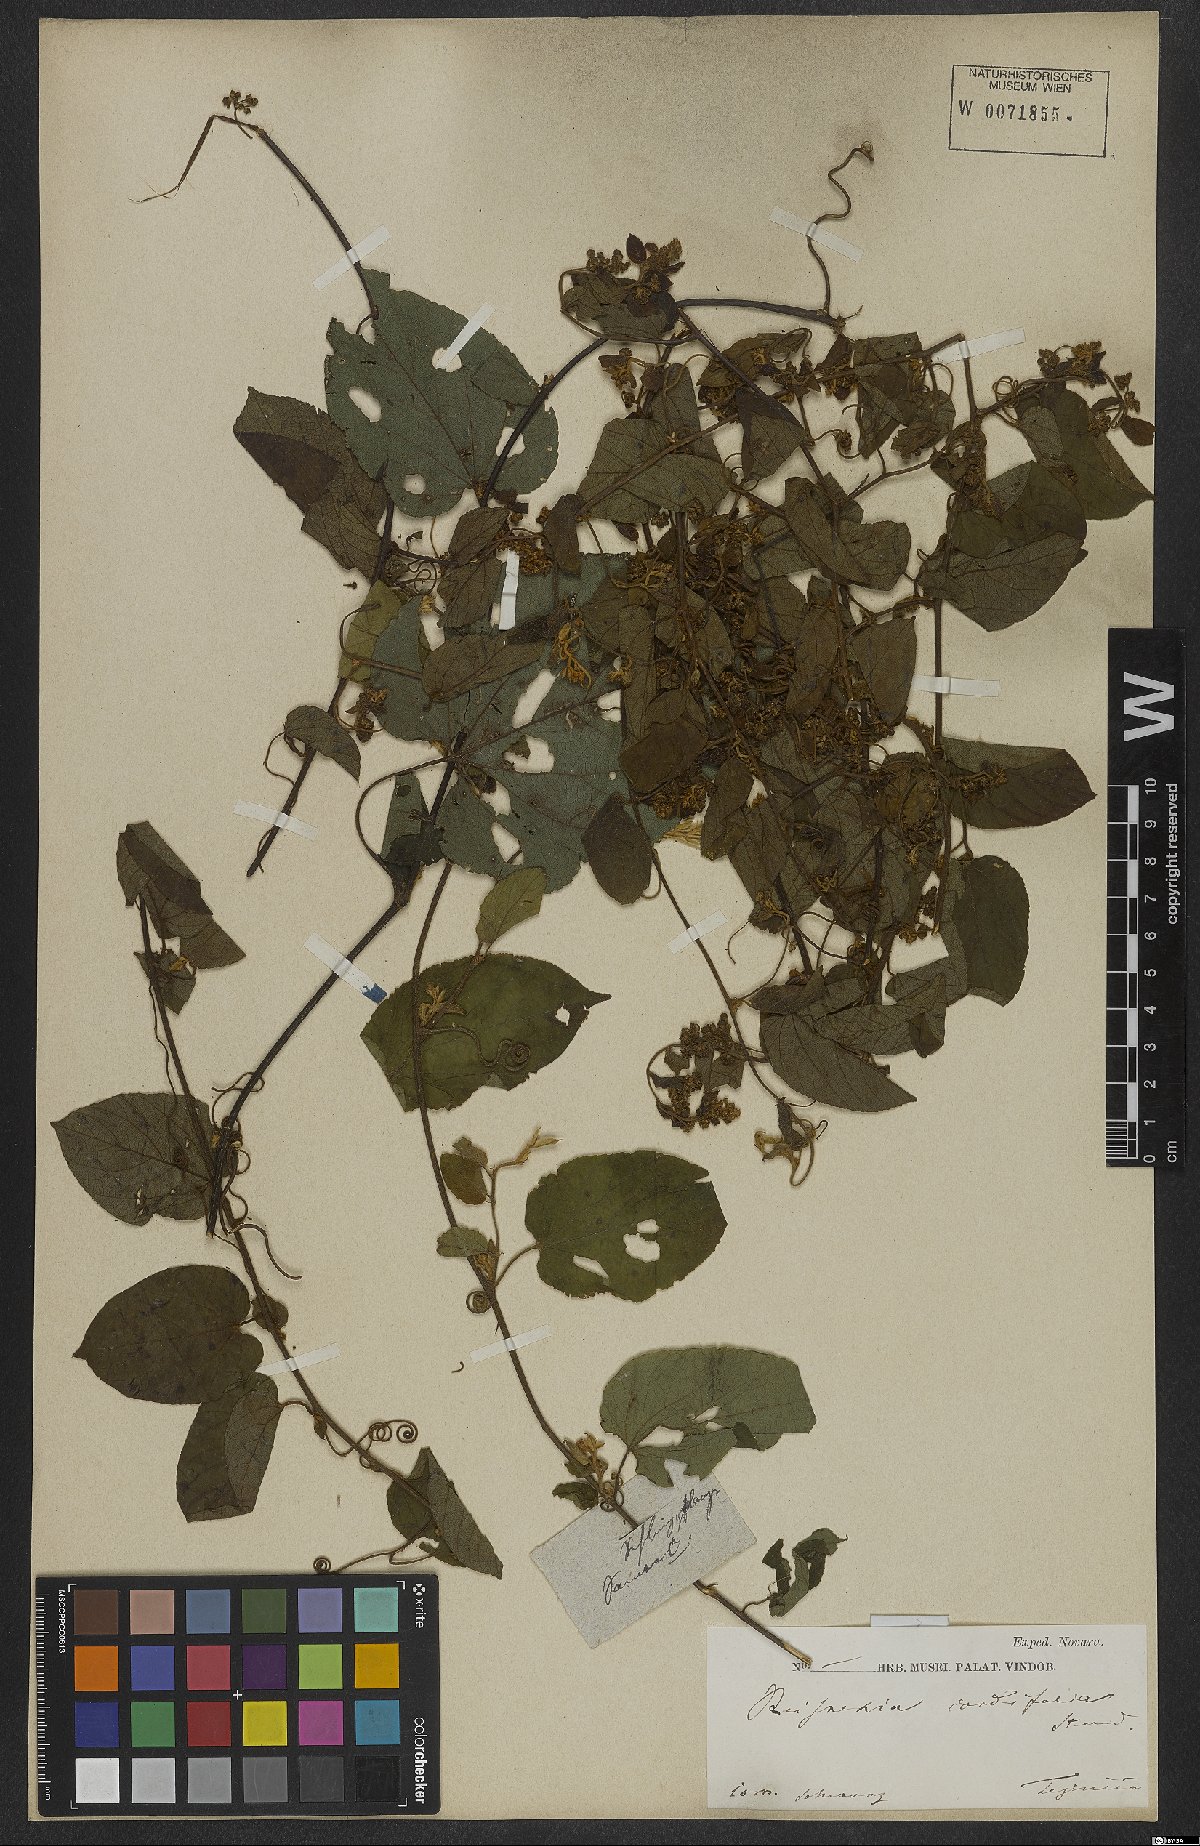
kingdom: Plantae
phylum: Tracheophyta
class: Magnoliopsida
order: Rosales
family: Rhamnaceae
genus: Reissekia
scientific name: Reissekia smilacina
